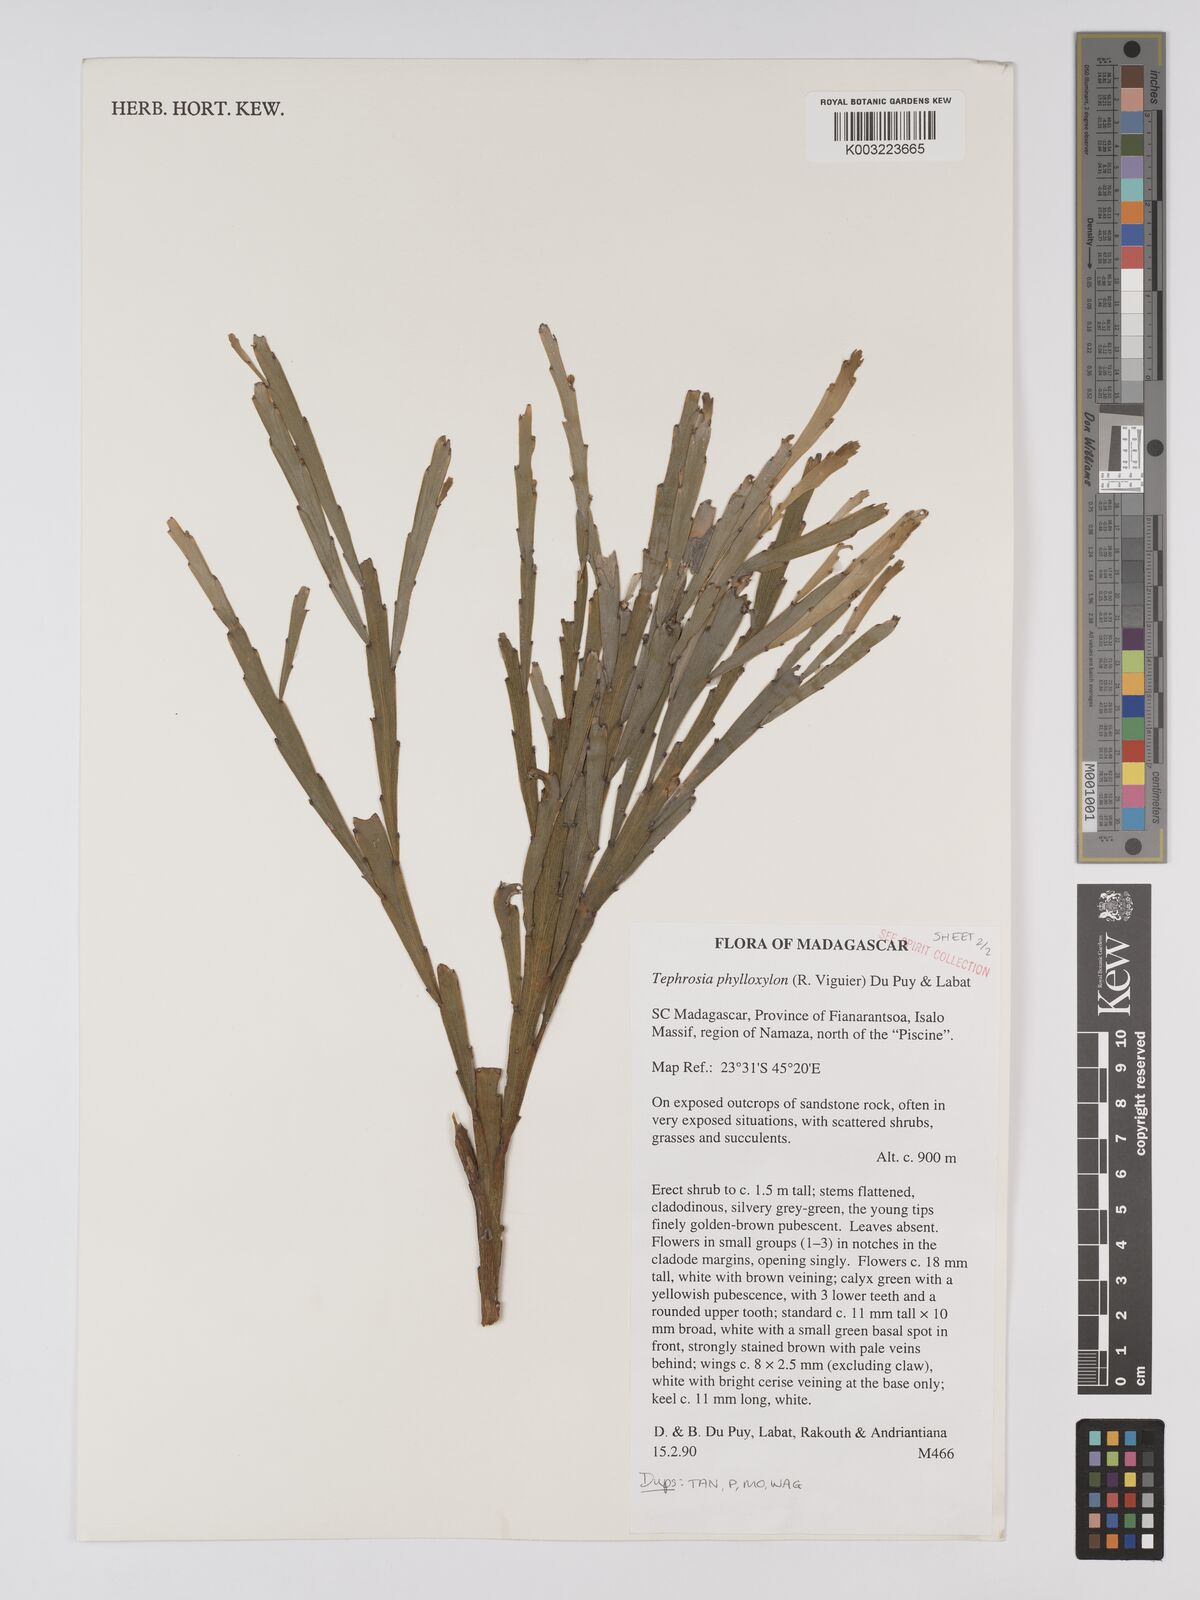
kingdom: Plantae
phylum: Tracheophyta
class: Magnoliopsida
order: Fabales
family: Fabaceae
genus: Tephrosia
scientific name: Tephrosia phylloxylon
